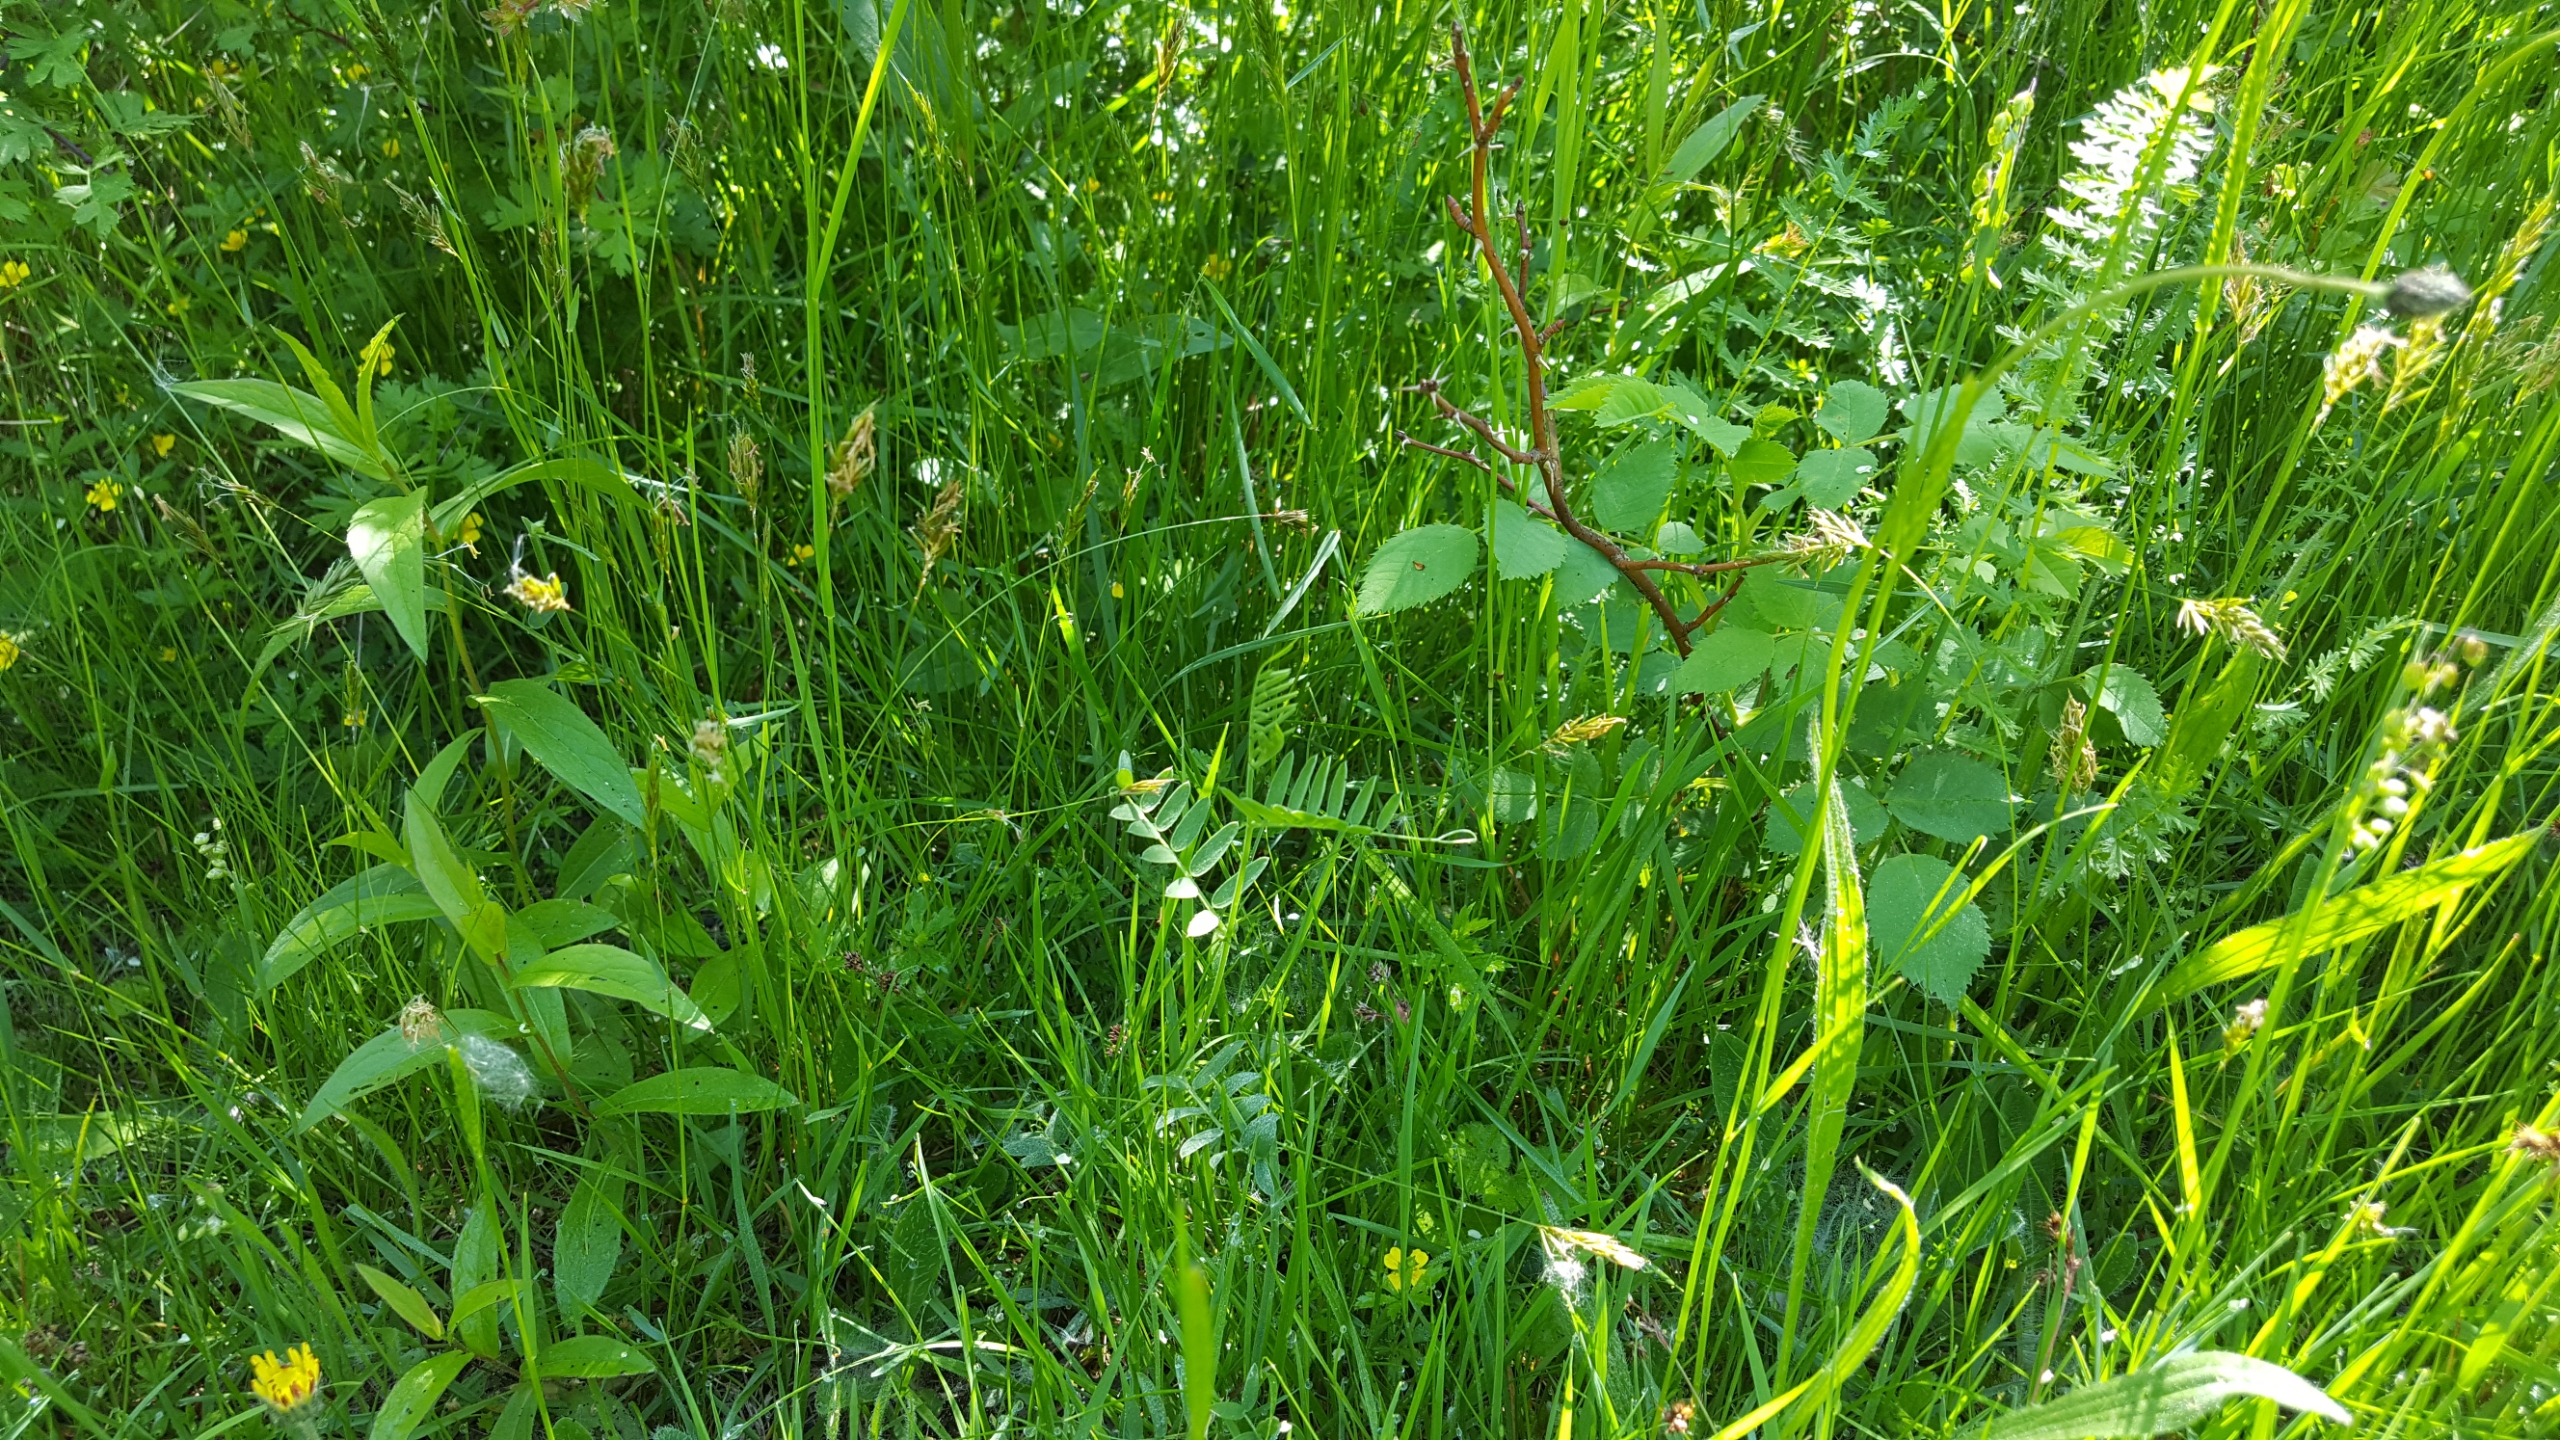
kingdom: Plantae
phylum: Tracheophyta
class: Magnoliopsida
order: Rosales
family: Rosaceae
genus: Filipendula
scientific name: Filipendula vulgaris
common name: Knoldet mjødurt
